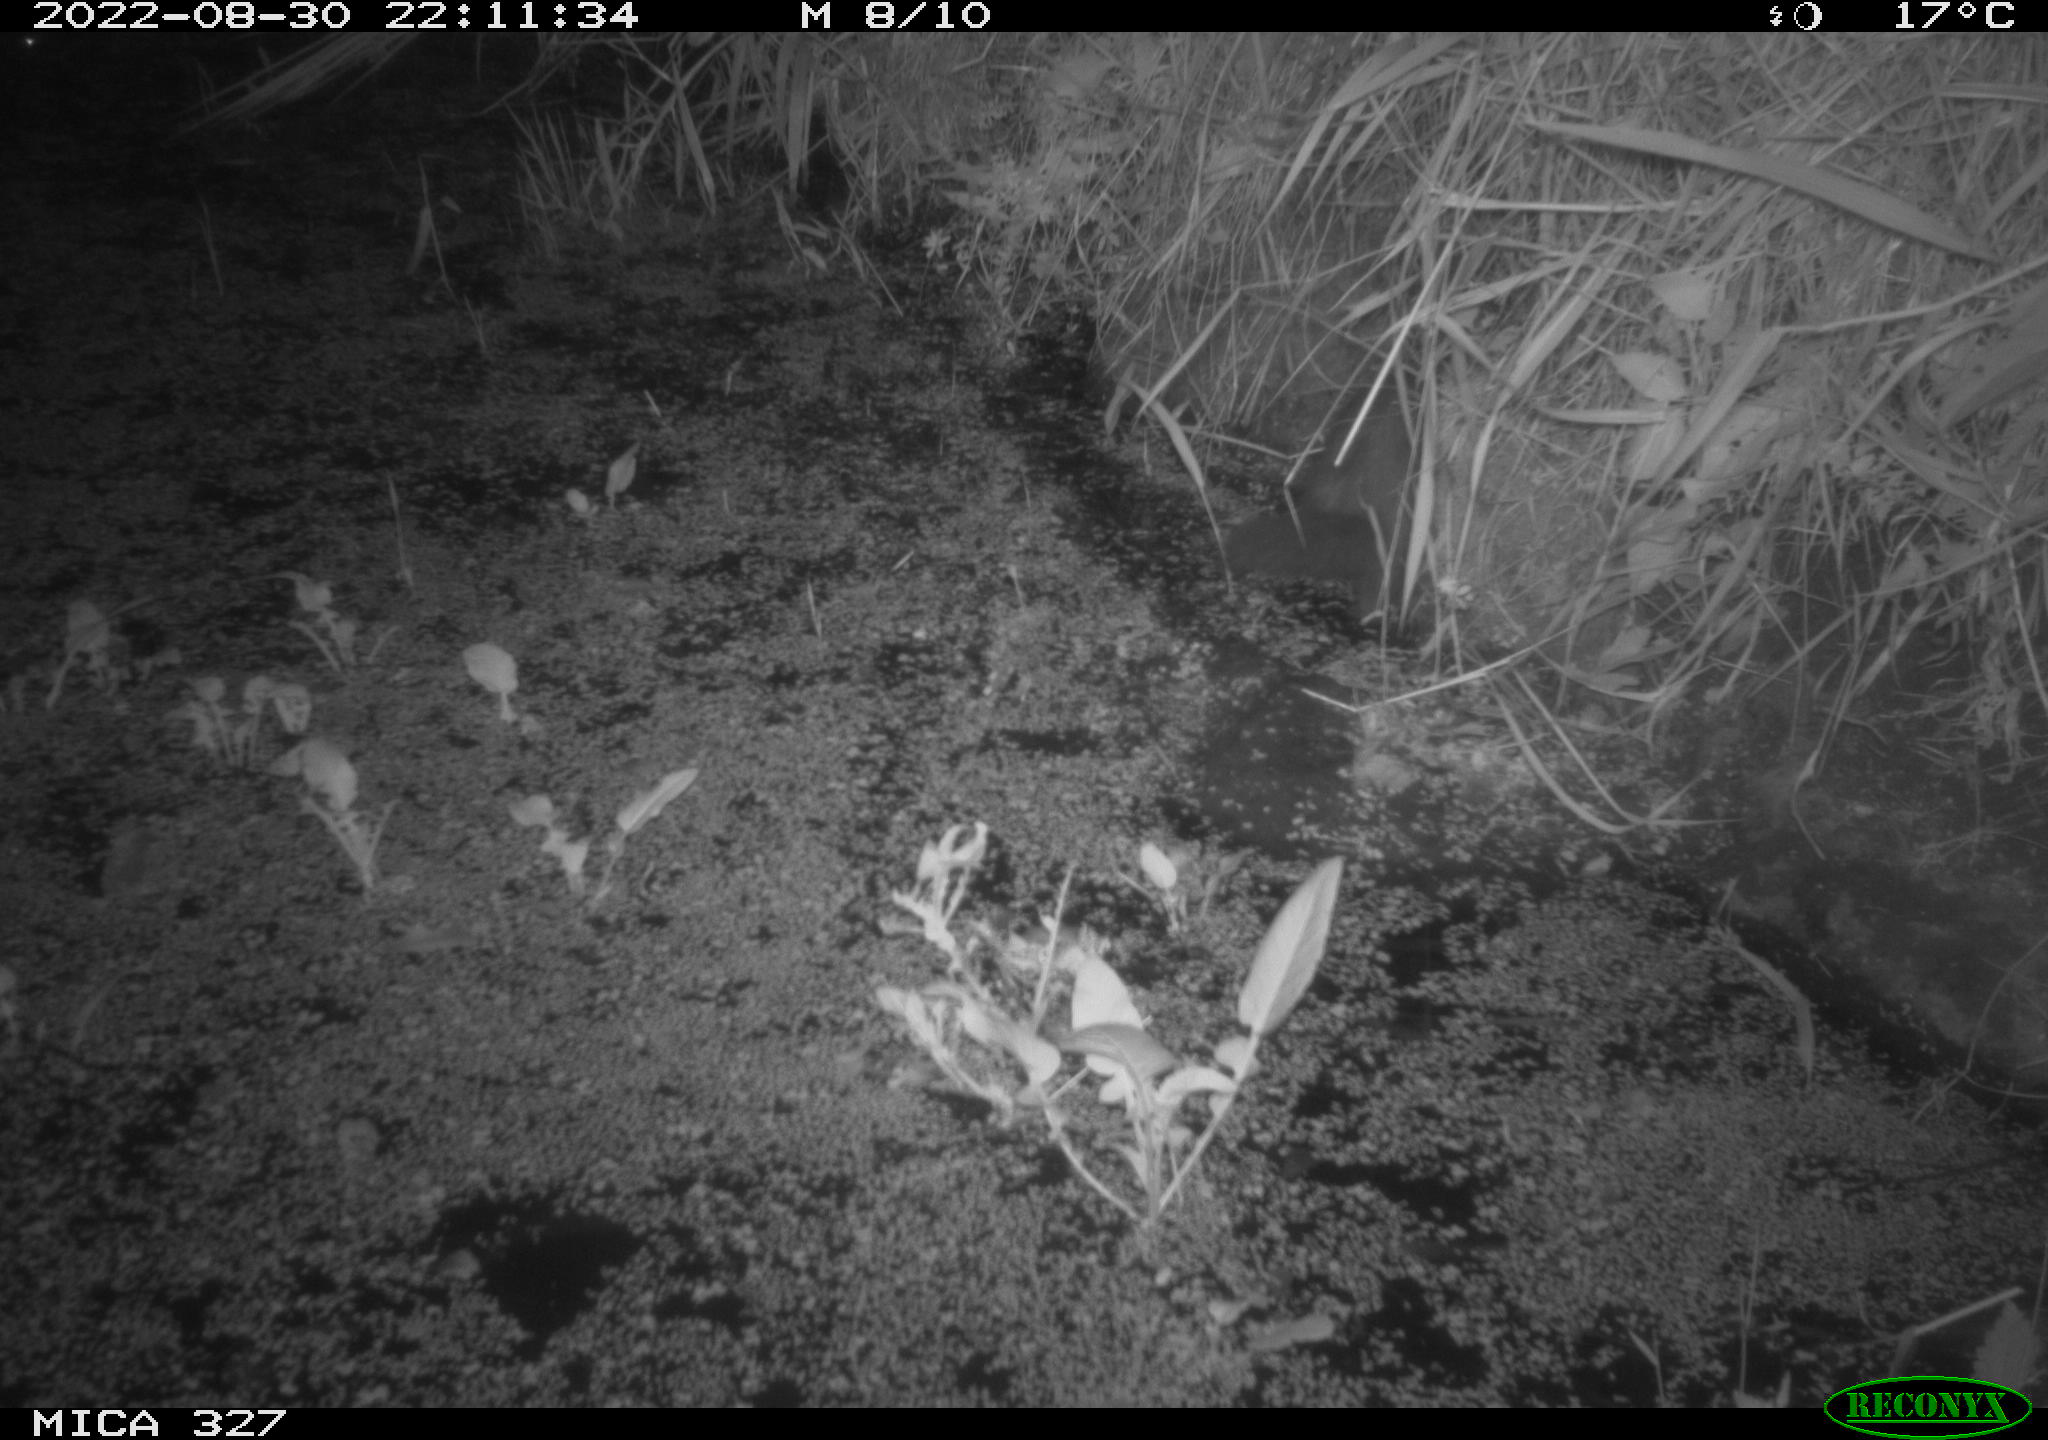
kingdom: Animalia
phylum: Chordata
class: Mammalia
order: Carnivora
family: Mustelidae
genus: Mustela
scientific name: Mustela putorius
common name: European polecat
